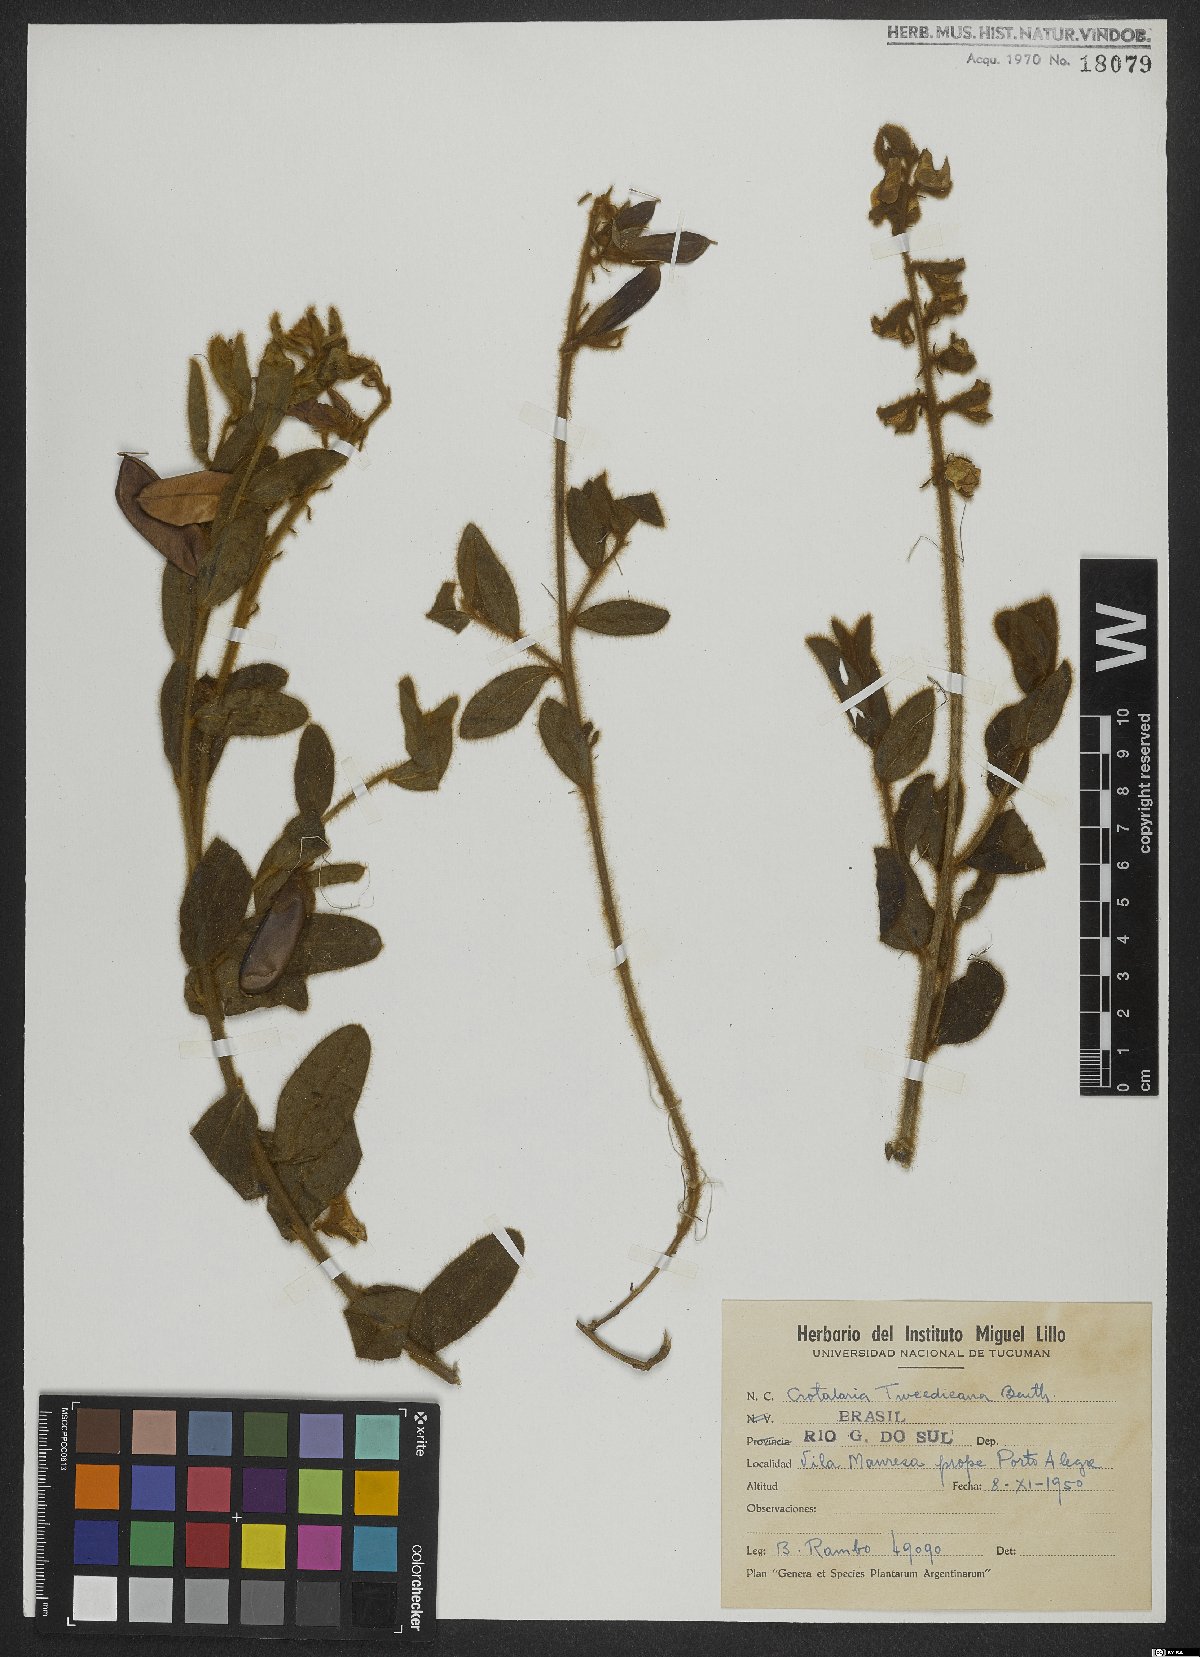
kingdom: Plantae
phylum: Tracheophyta
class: Magnoliopsida
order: Fabales
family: Fabaceae
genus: Crotalaria
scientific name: Crotalaria tweediana
